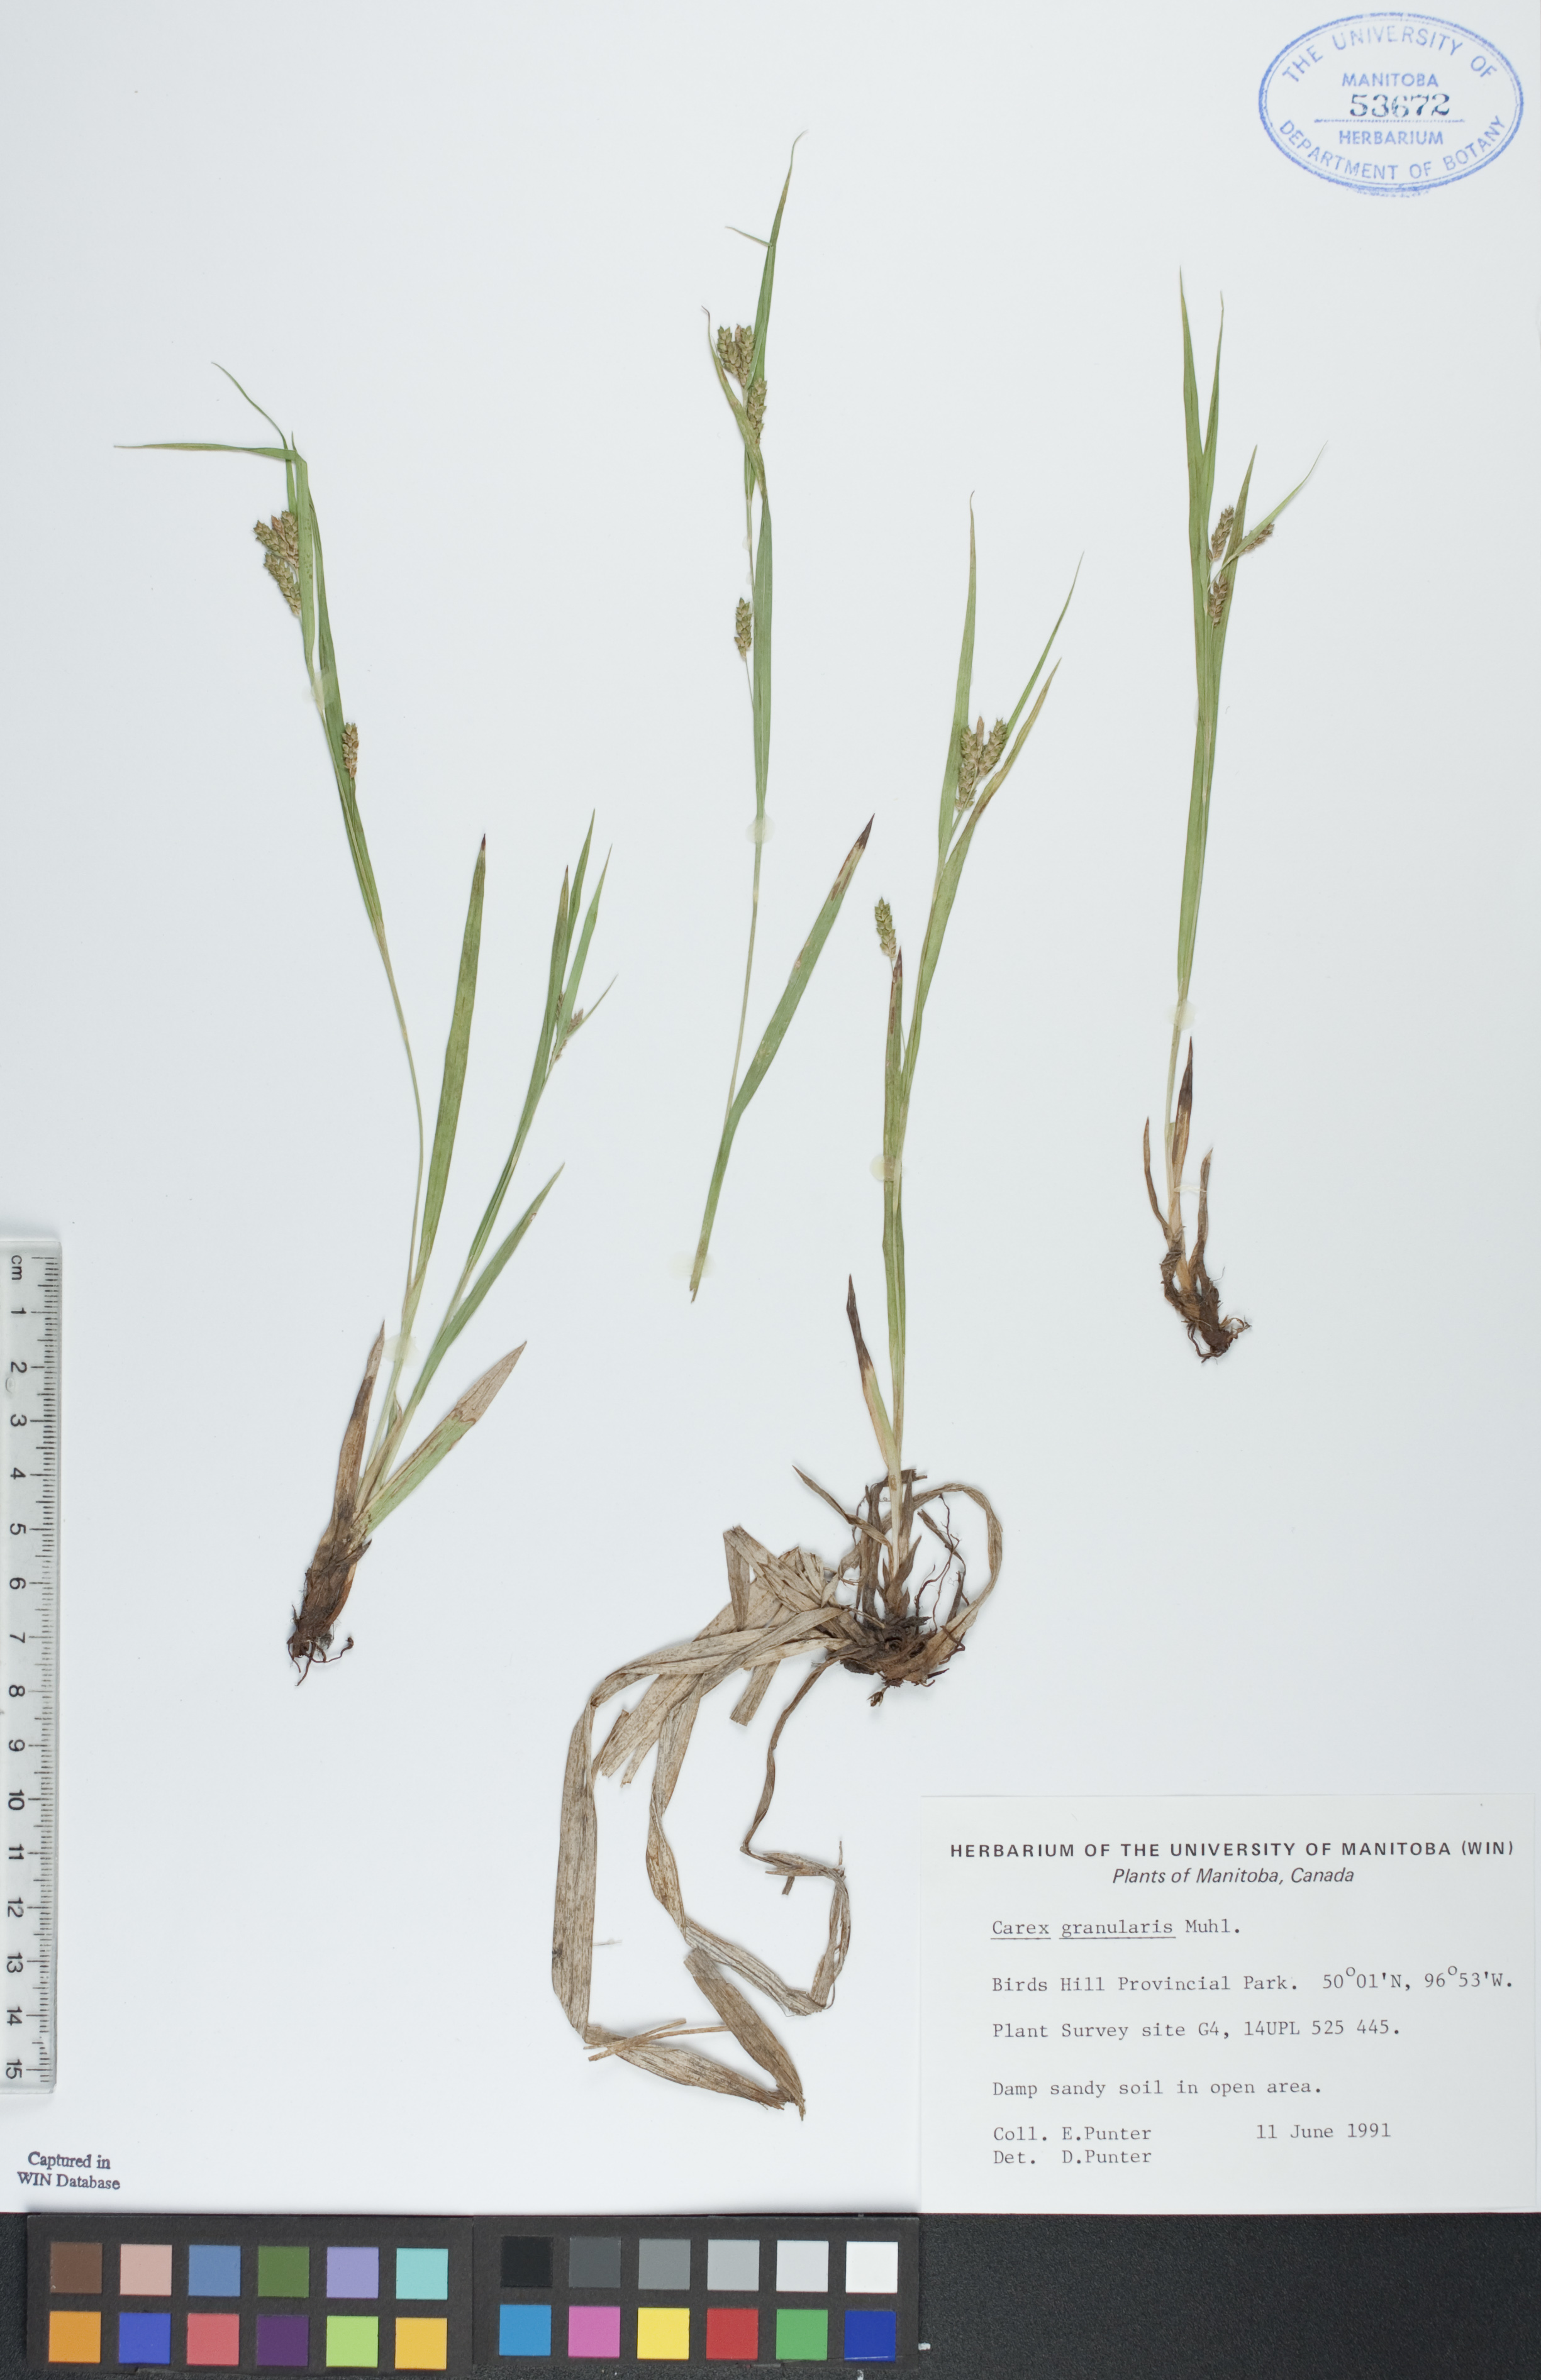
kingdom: Plantae
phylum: Tracheophyta
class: Liliopsida
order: Poales
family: Cyperaceae
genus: Carex
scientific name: Carex granularis
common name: Granular sedge
